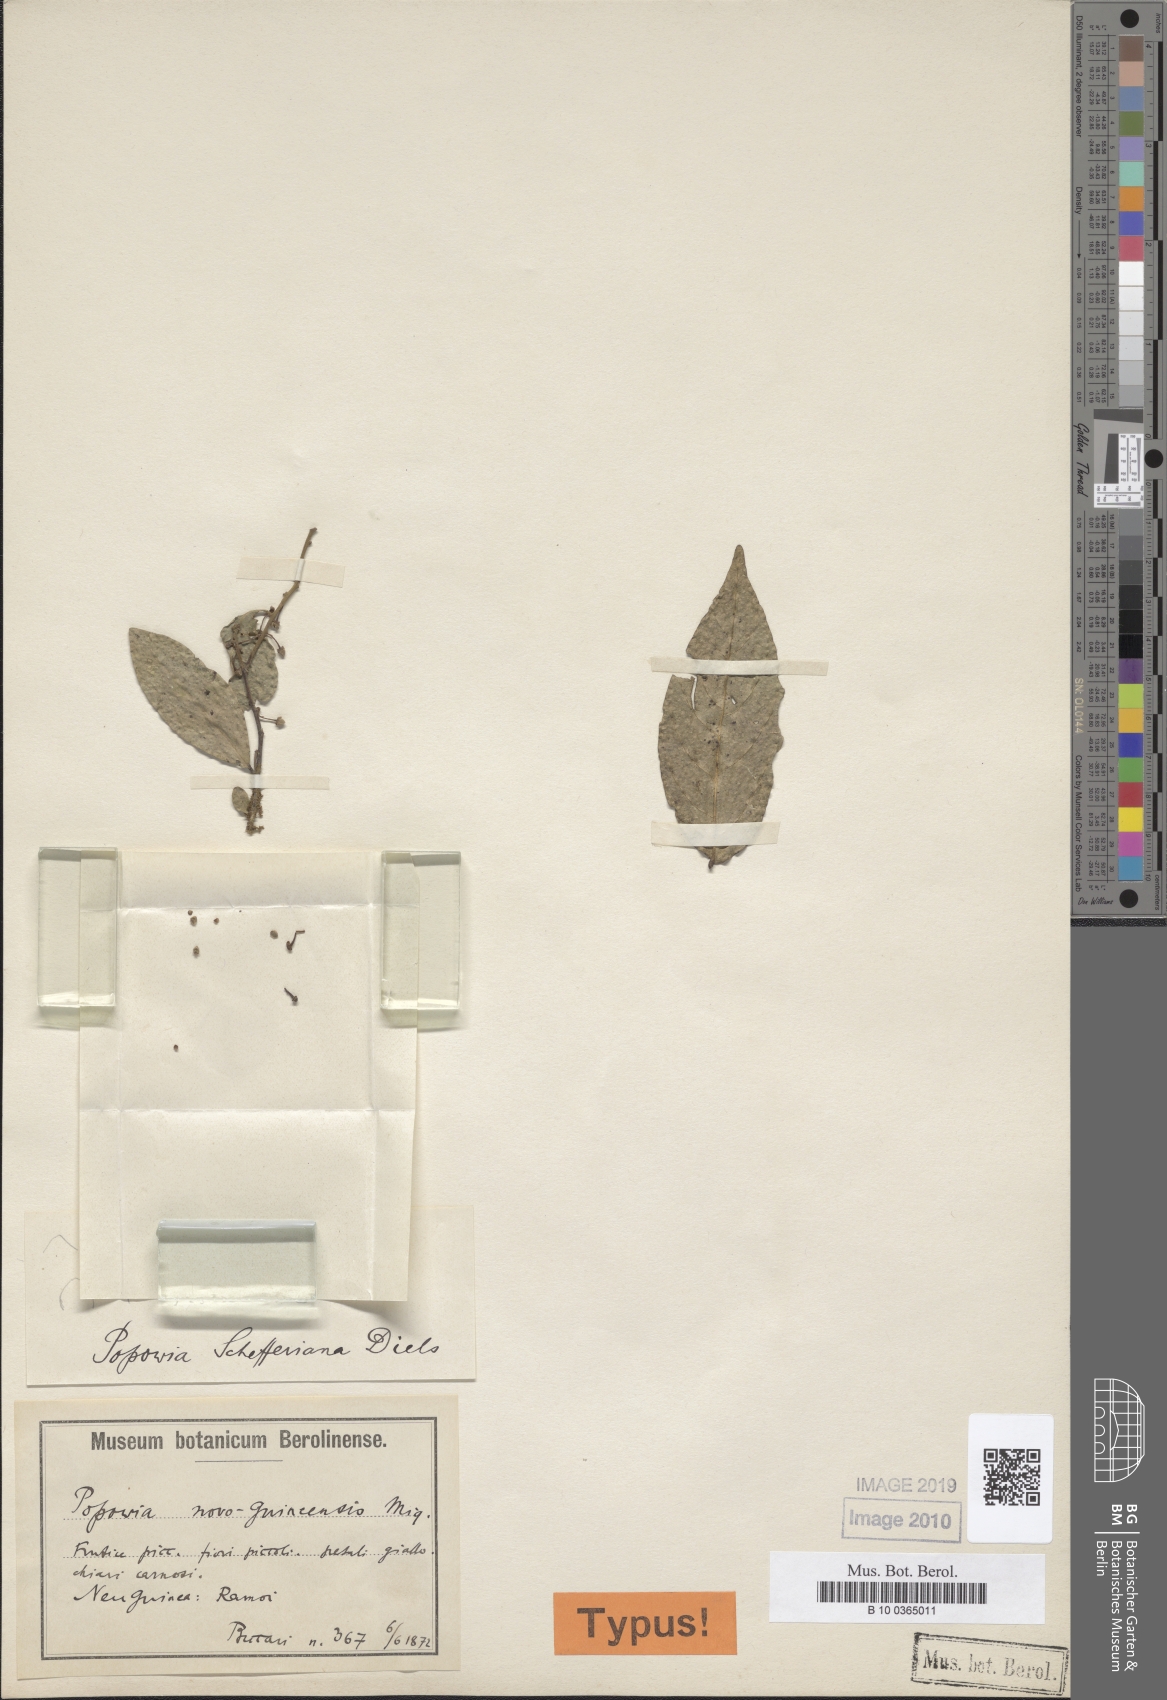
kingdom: Plantae
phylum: Tracheophyta
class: Magnoliopsida
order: Magnoliales
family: Annonaceae
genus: Popowia
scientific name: Popowia schefferiana
